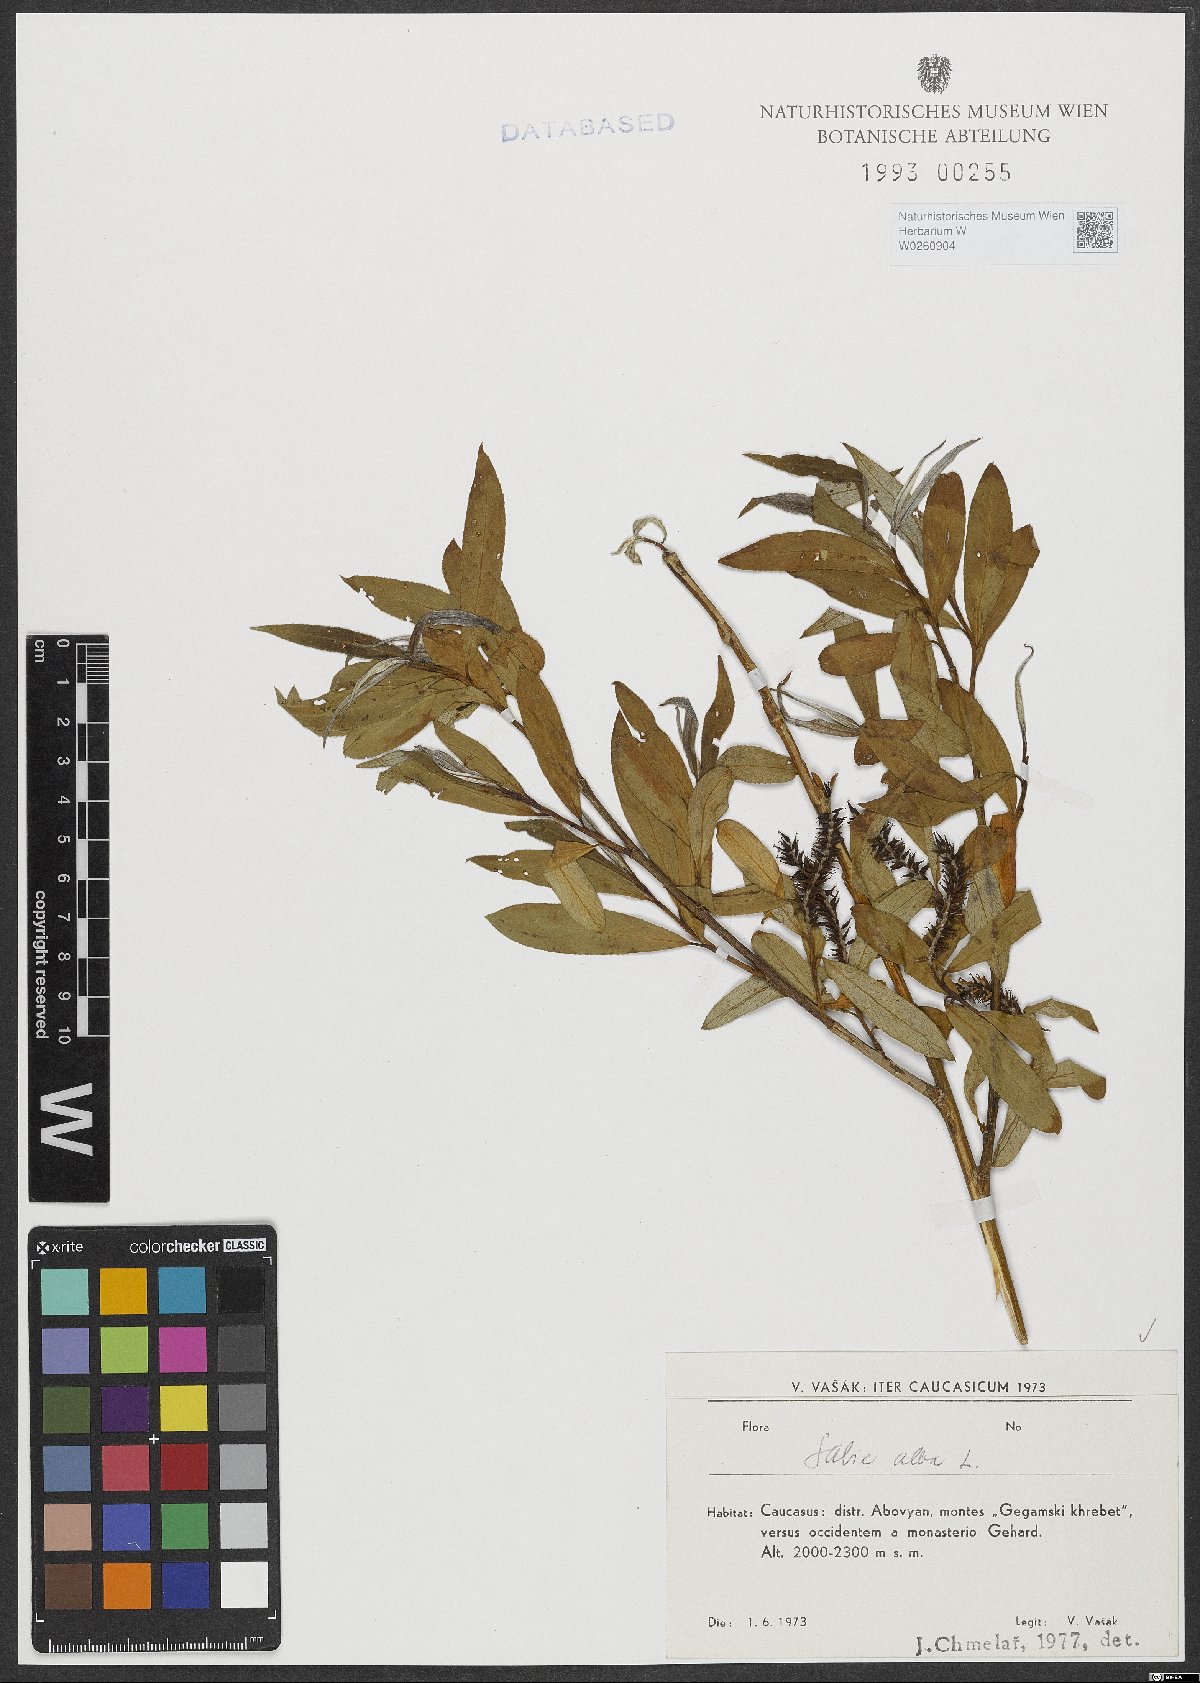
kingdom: Plantae
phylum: Tracheophyta
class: Magnoliopsida
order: Malpighiales
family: Salicaceae
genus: Salix
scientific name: Salix alba
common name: White willow
